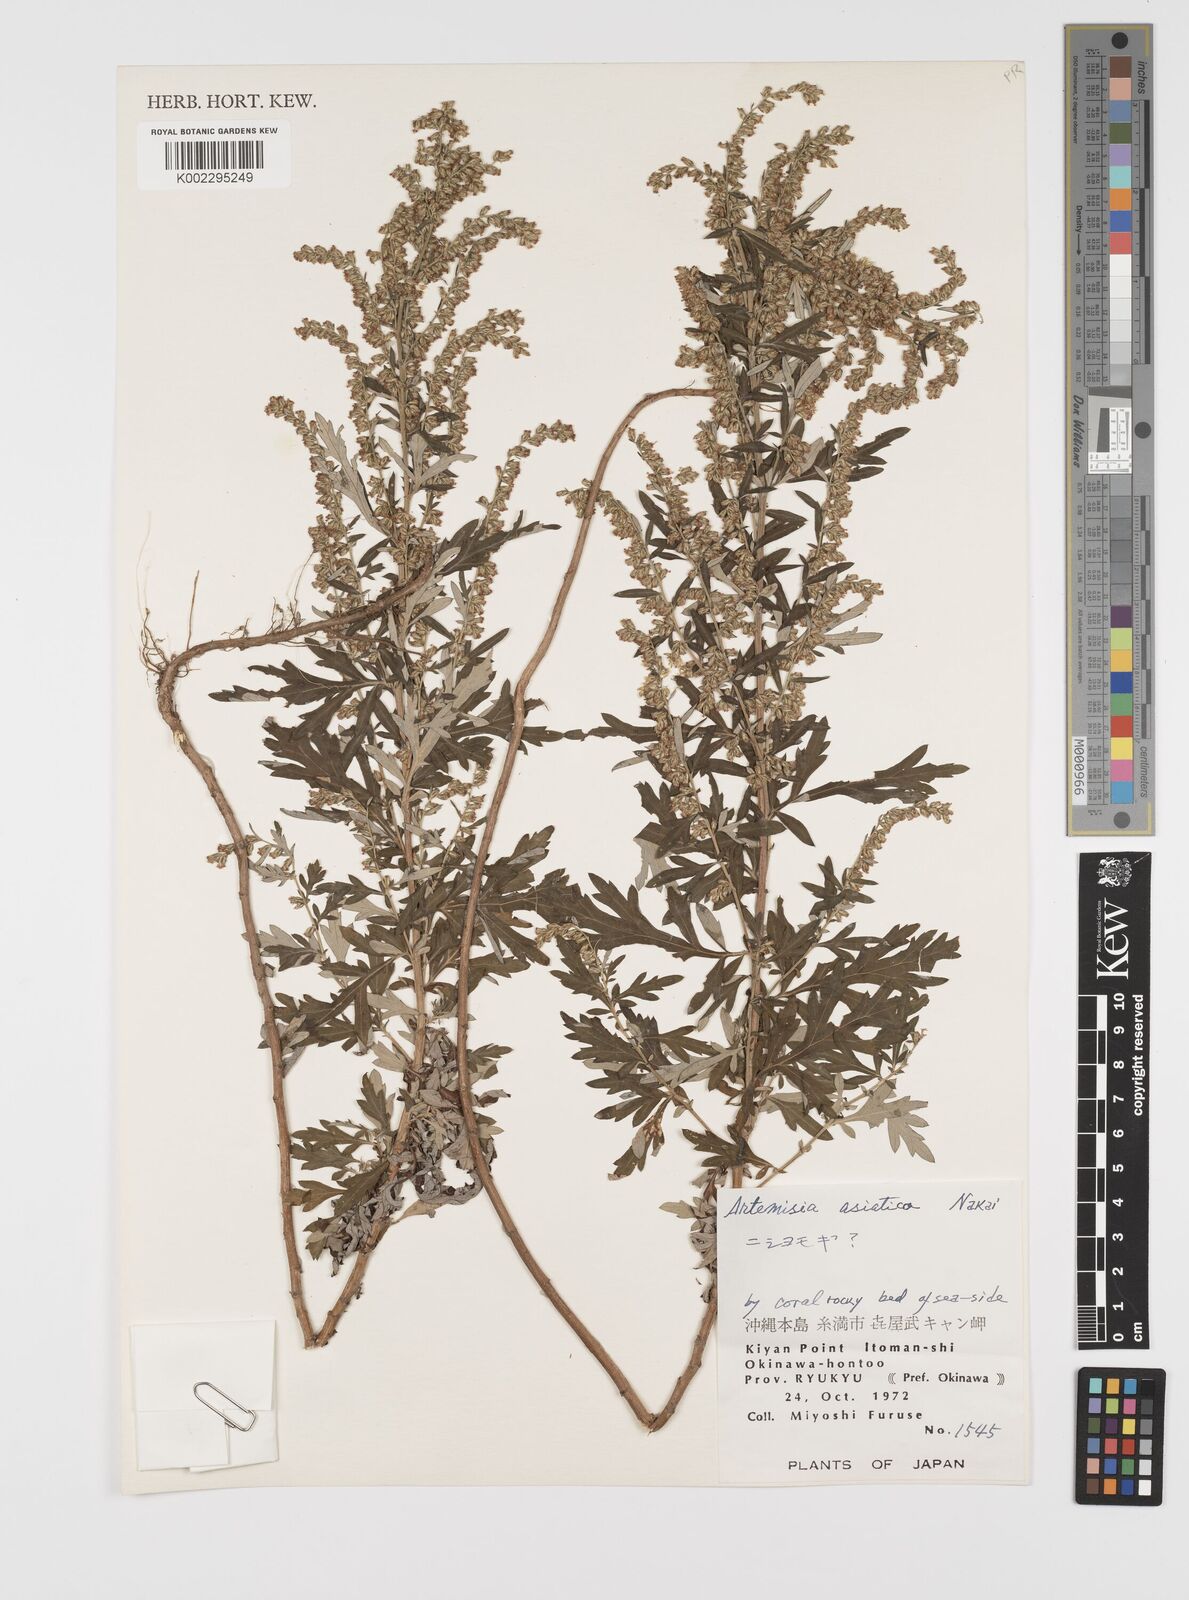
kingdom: Plantae
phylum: Tracheophyta
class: Magnoliopsida
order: Asterales
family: Asteraceae
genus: Artemisia
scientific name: Artemisia indica
